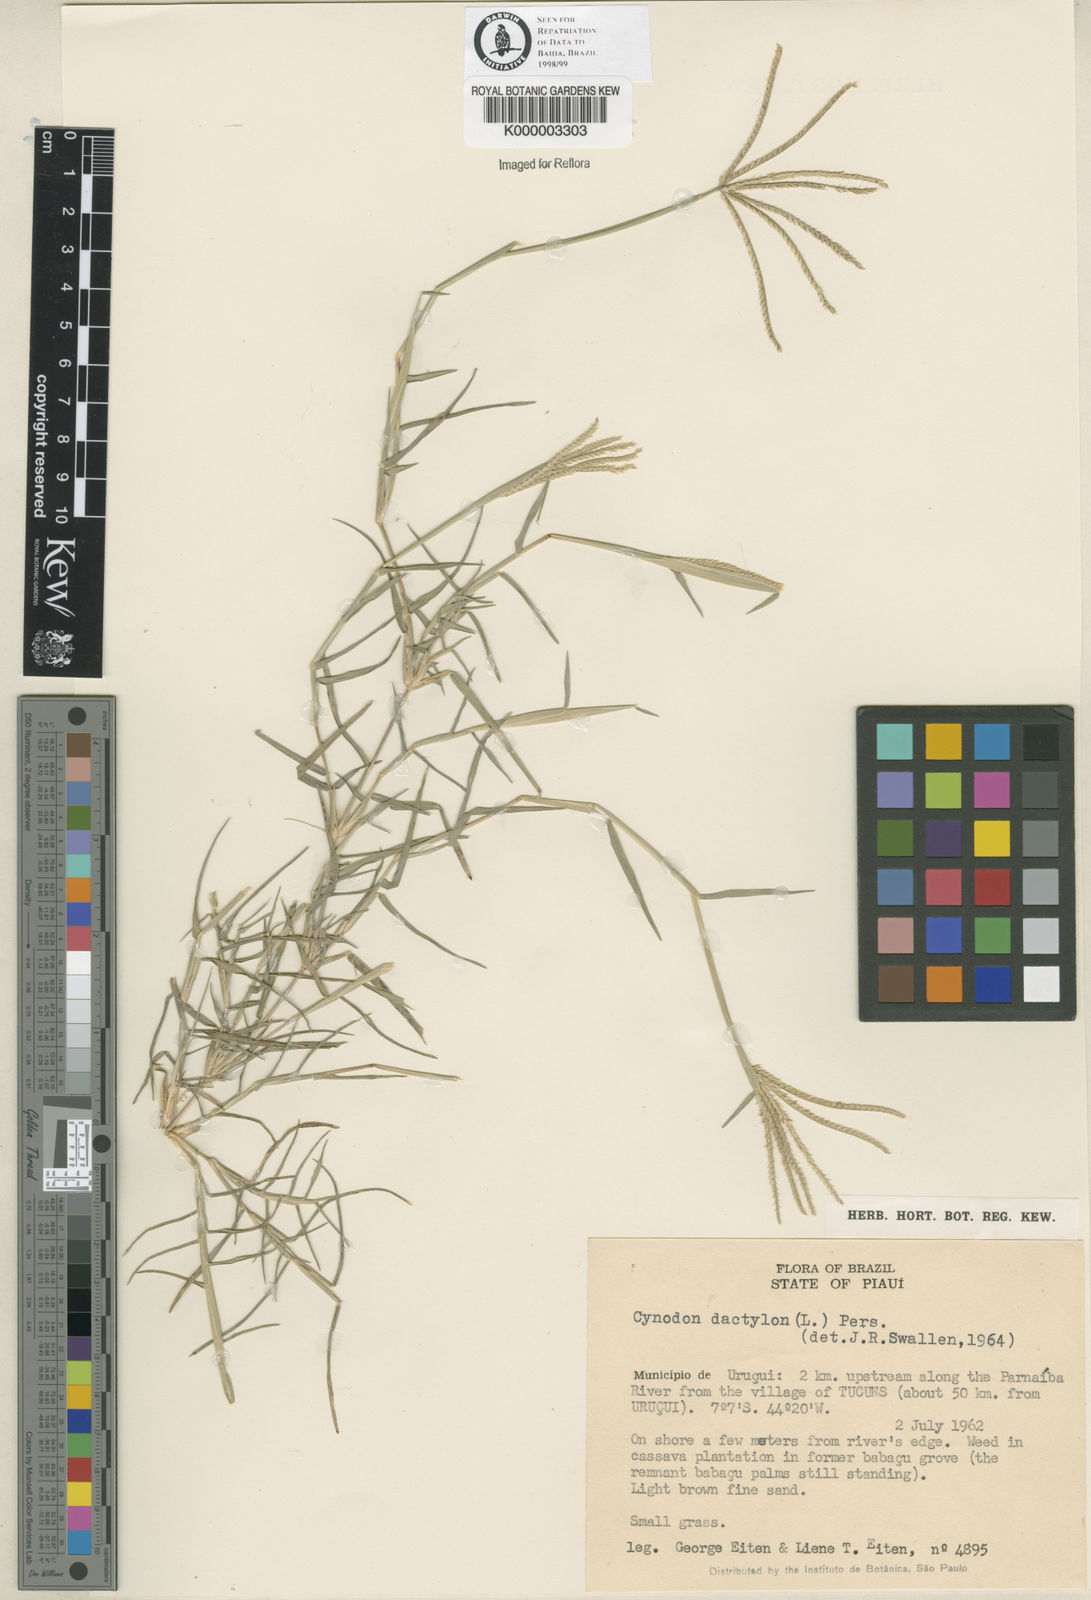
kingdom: Plantae
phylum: Tracheophyta
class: Liliopsida
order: Poales
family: Poaceae
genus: Cynodon
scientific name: Cynodon dactylon
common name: Bermuda grass
